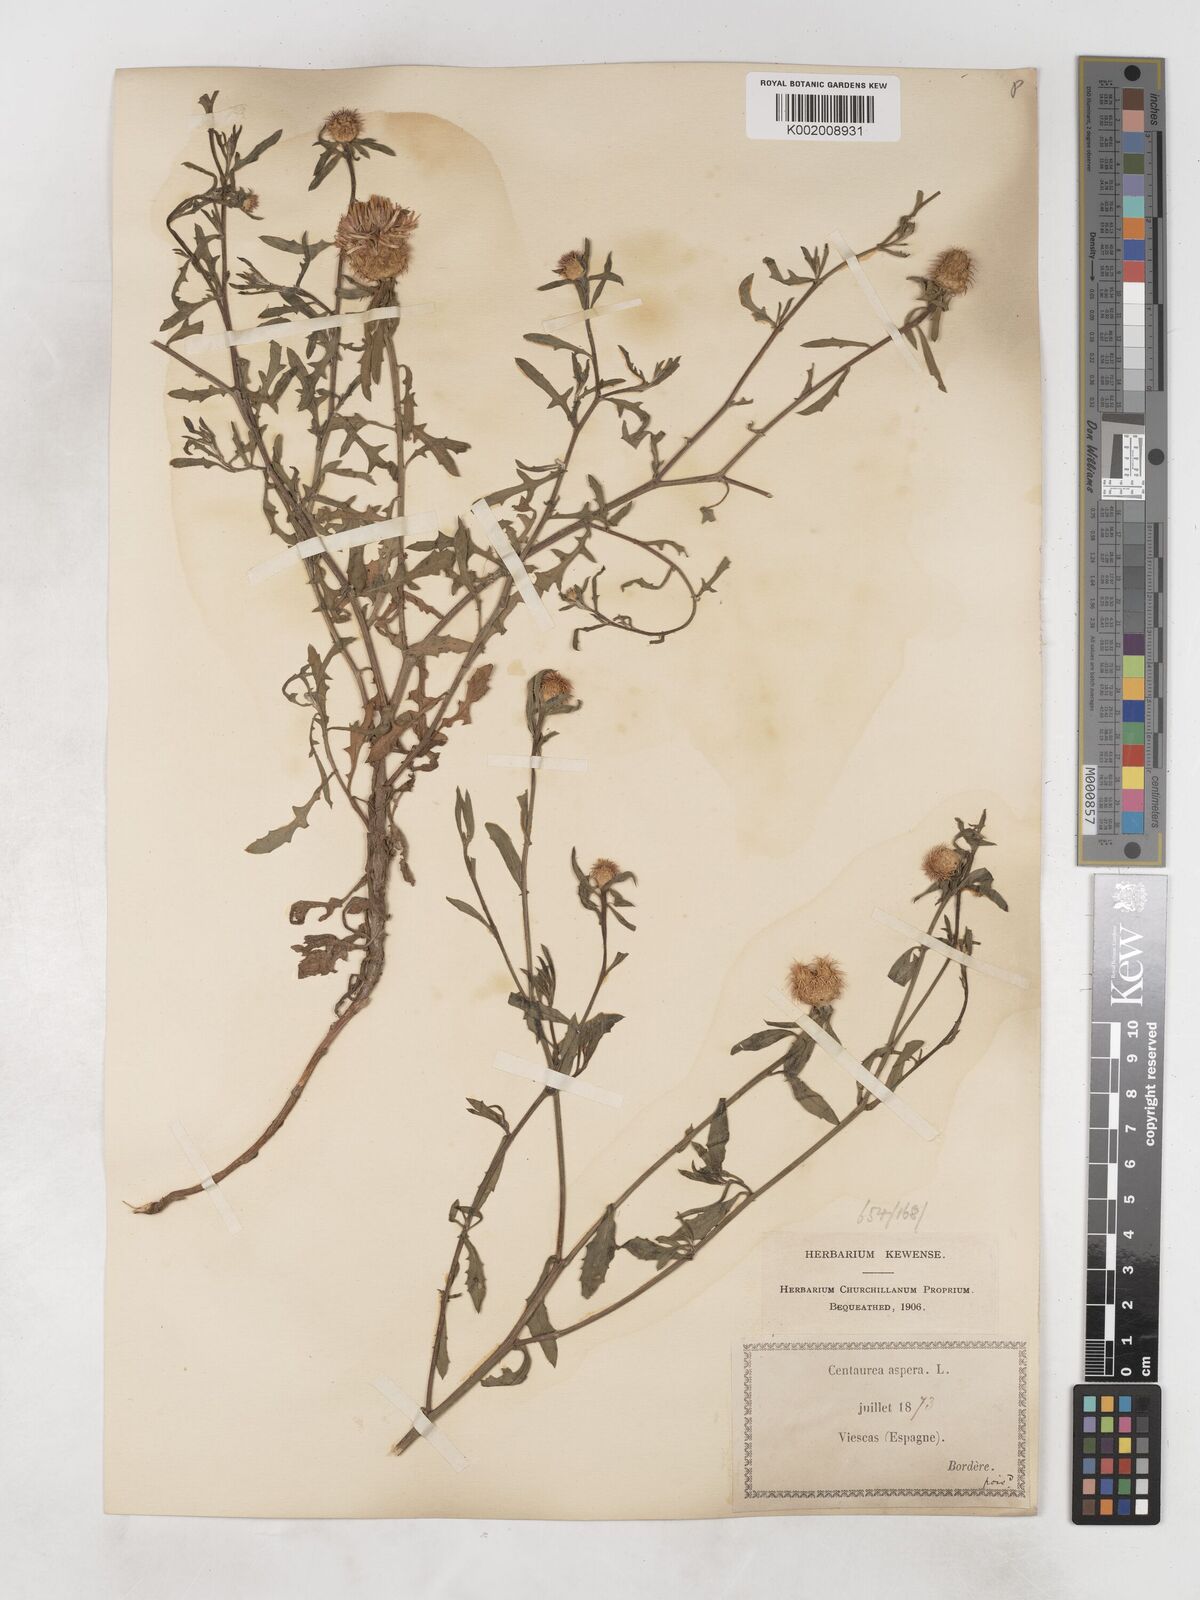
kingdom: Plantae
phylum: Tracheophyta
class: Magnoliopsida
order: Asterales
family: Asteraceae
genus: Centaurea
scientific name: Centaurea aspera
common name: Rough star-thistle
